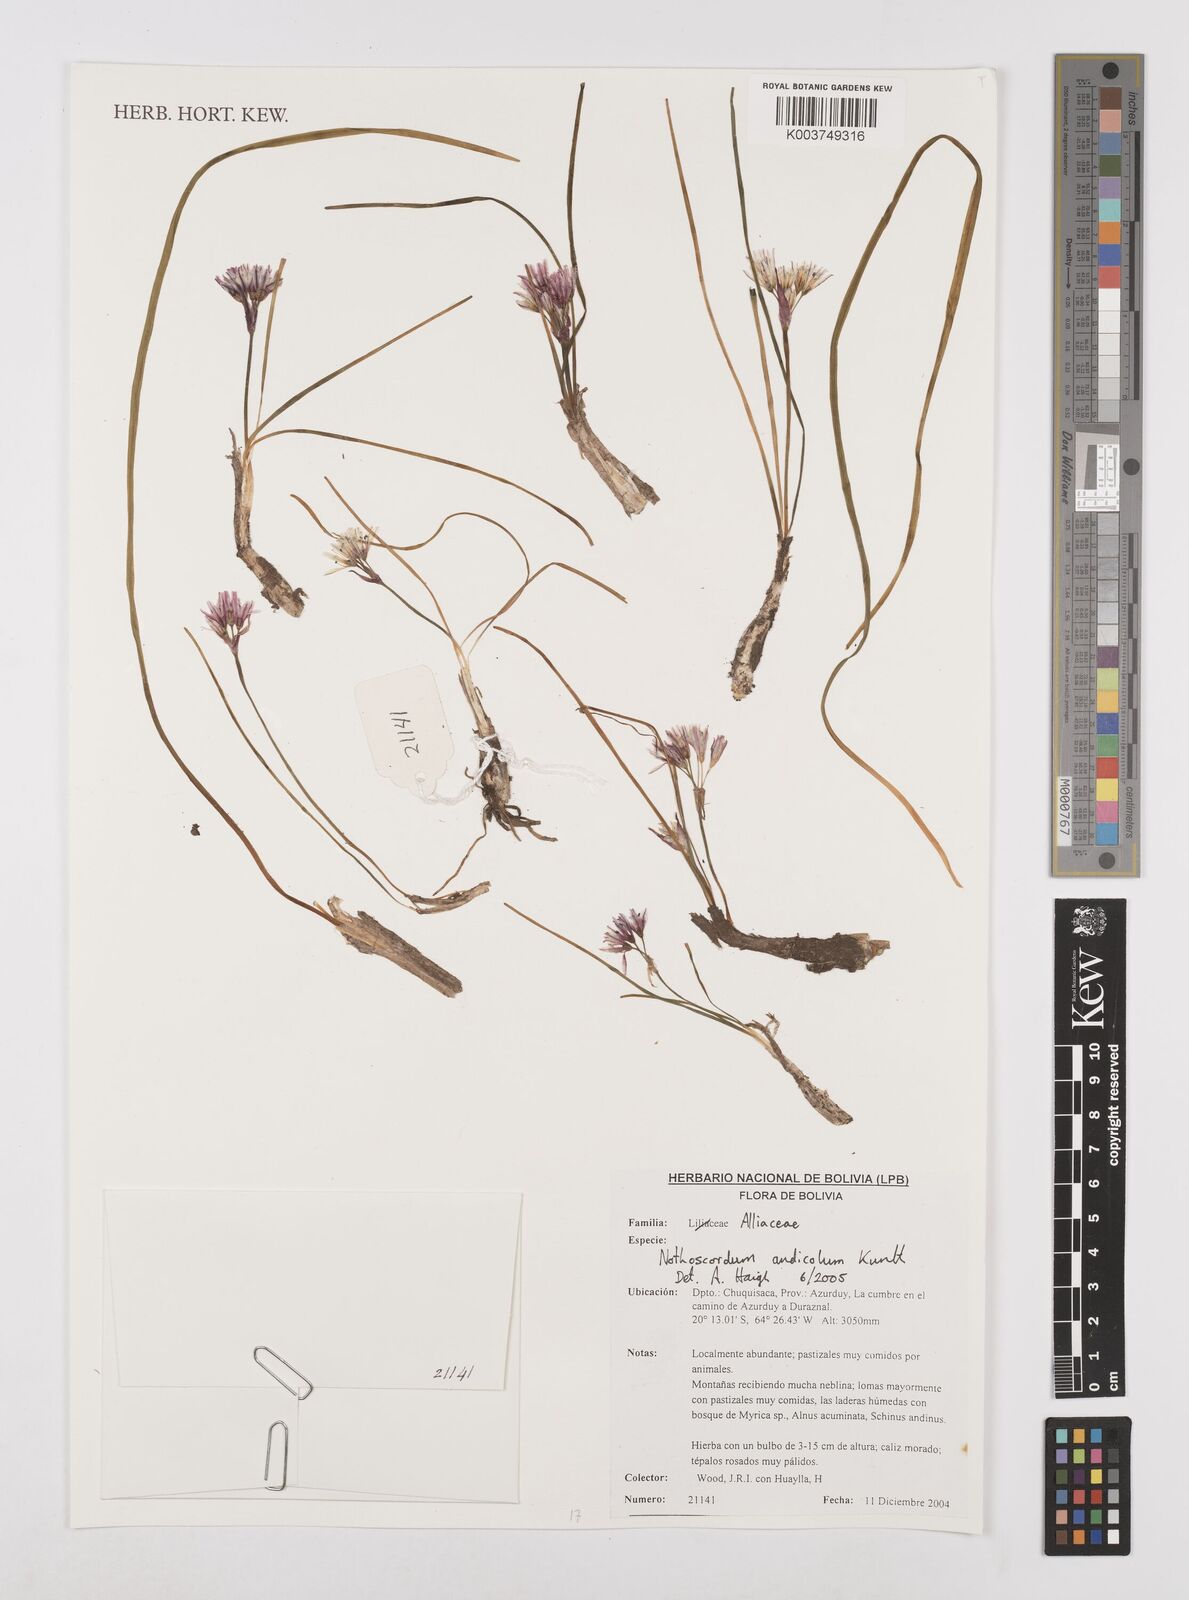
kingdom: Plantae
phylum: Tracheophyta
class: Liliopsida
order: Asparagales
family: Amaryllidaceae
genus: Nothoscordum
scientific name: Nothoscordum andicola
